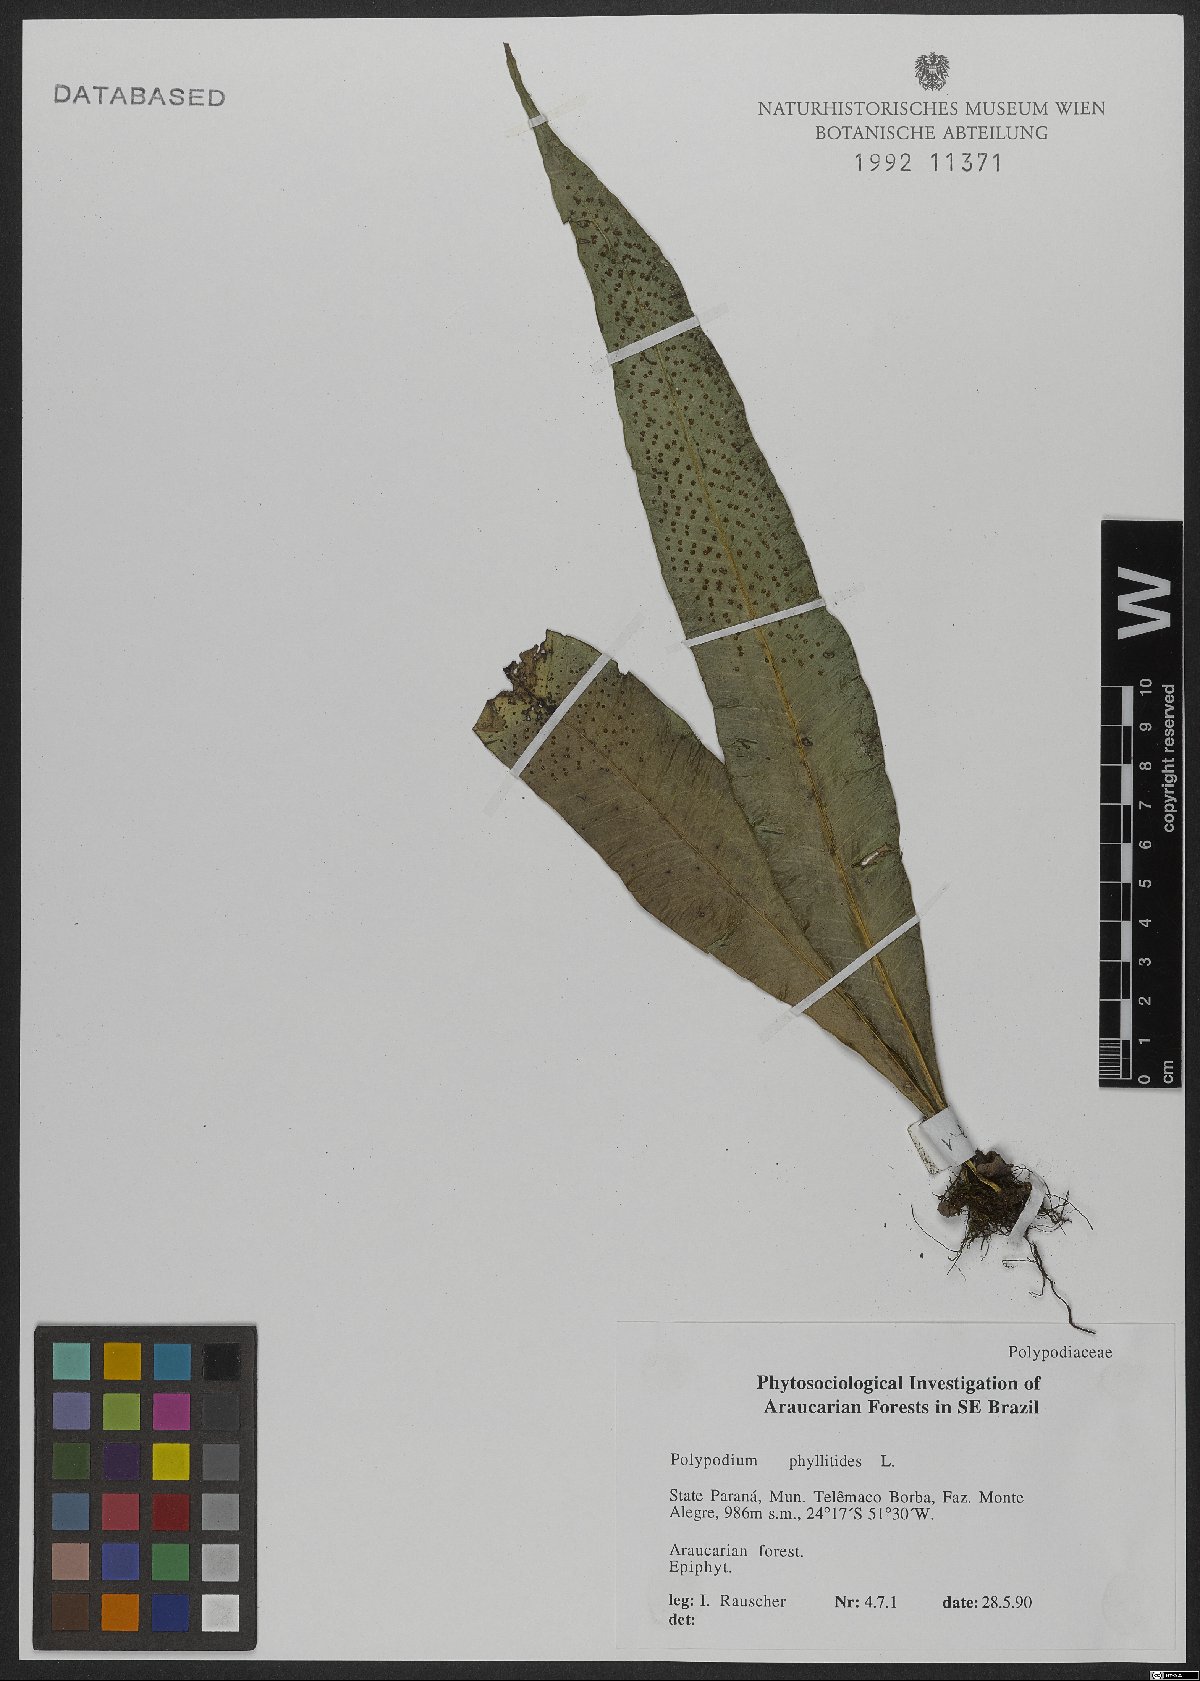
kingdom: Plantae
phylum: Tracheophyta
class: Polypodiopsida
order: Polypodiales
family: Polypodiaceae
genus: Campyloneurum
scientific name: Campyloneurum phyllitidis
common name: Cow-tongue fern
